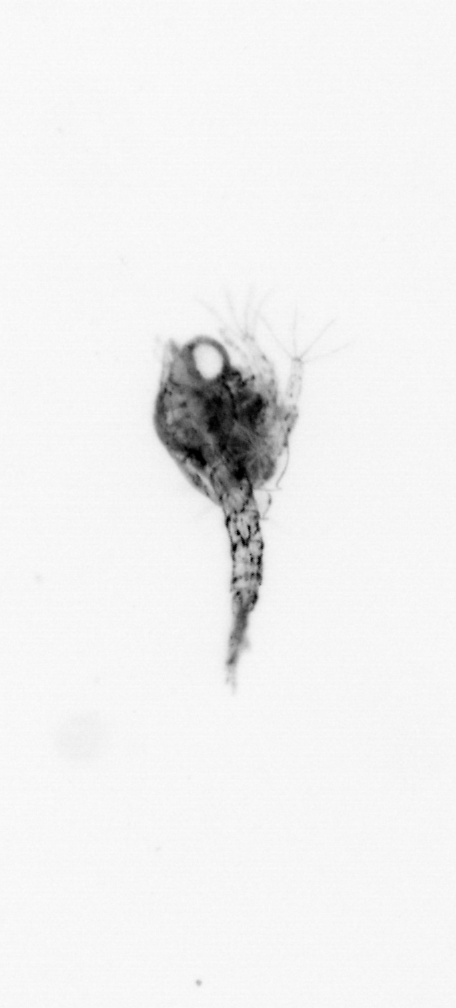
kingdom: Animalia
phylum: Arthropoda
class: Malacostraca
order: Decapoda
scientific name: Decapoda
